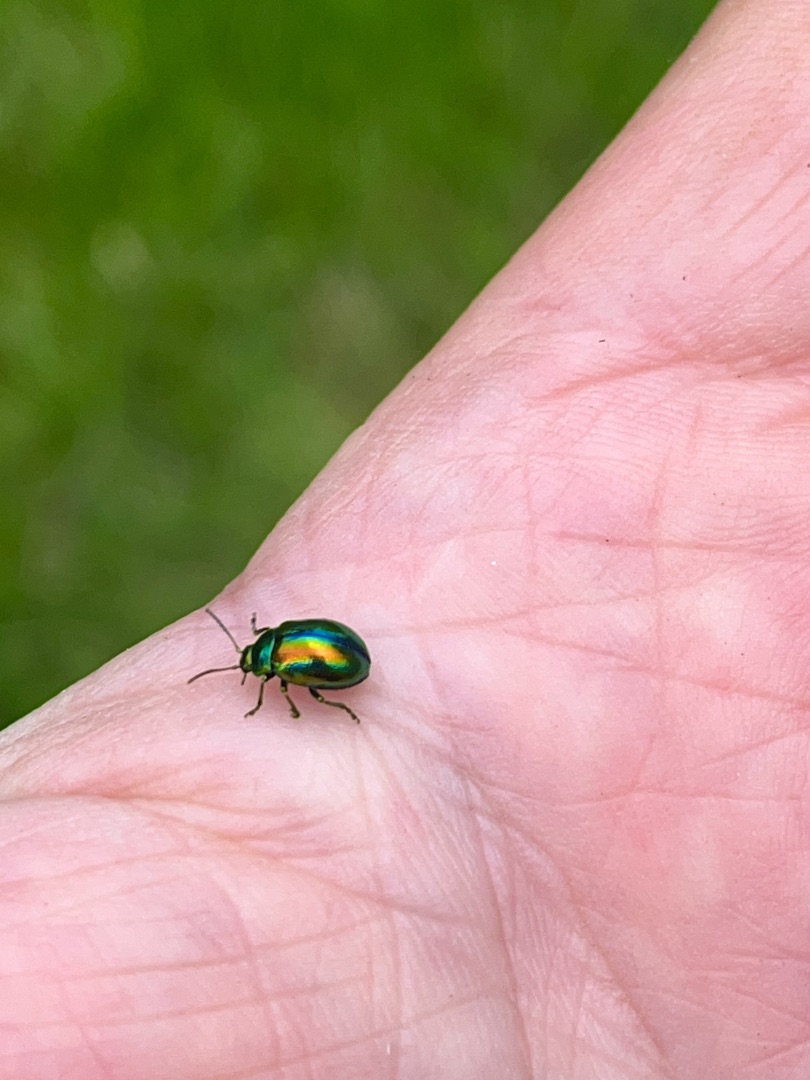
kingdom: Animalia
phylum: Arthropoda
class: Insecta
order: Coleoptera
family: Chrysomelidae
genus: Chrysolina
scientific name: Chrysolina fastuosa
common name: Tvetandbladbille
